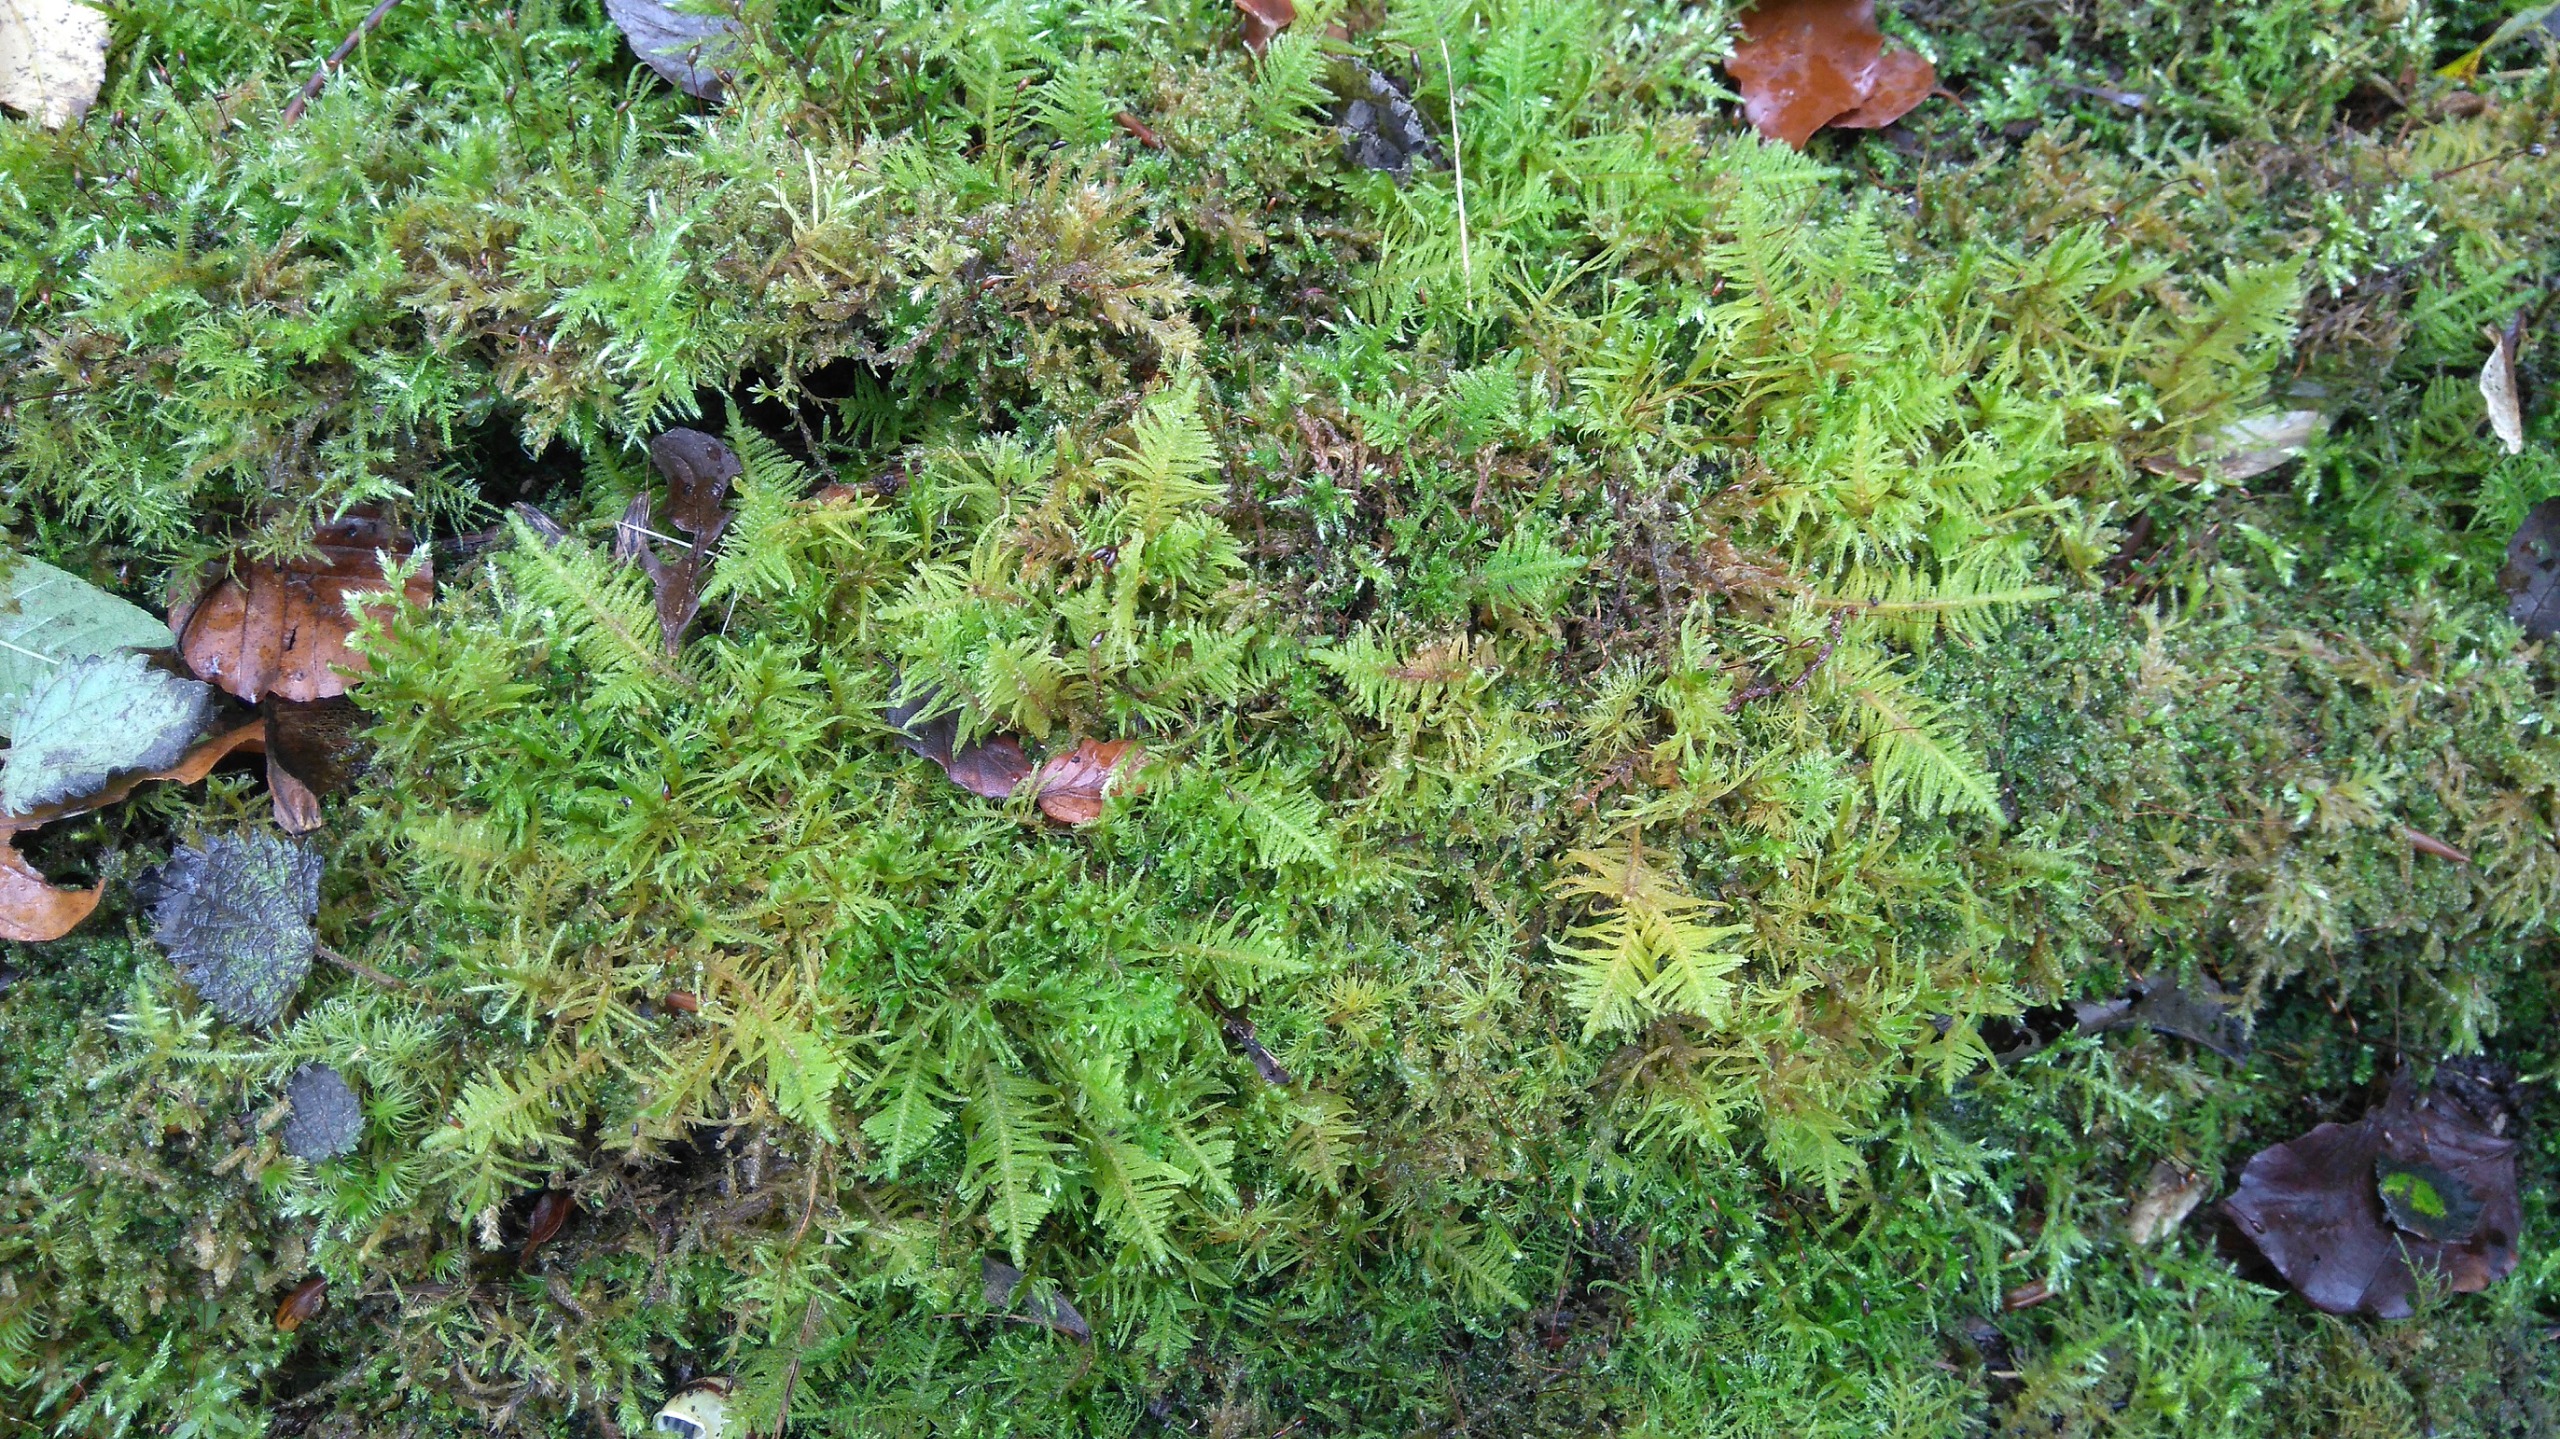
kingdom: Plantae
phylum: Bryophyta
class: Bryopsida
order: Hypnales
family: Pylaisiaceae
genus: Ptilium
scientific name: Ptilium crista-castrensis
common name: Fjer-kammos
